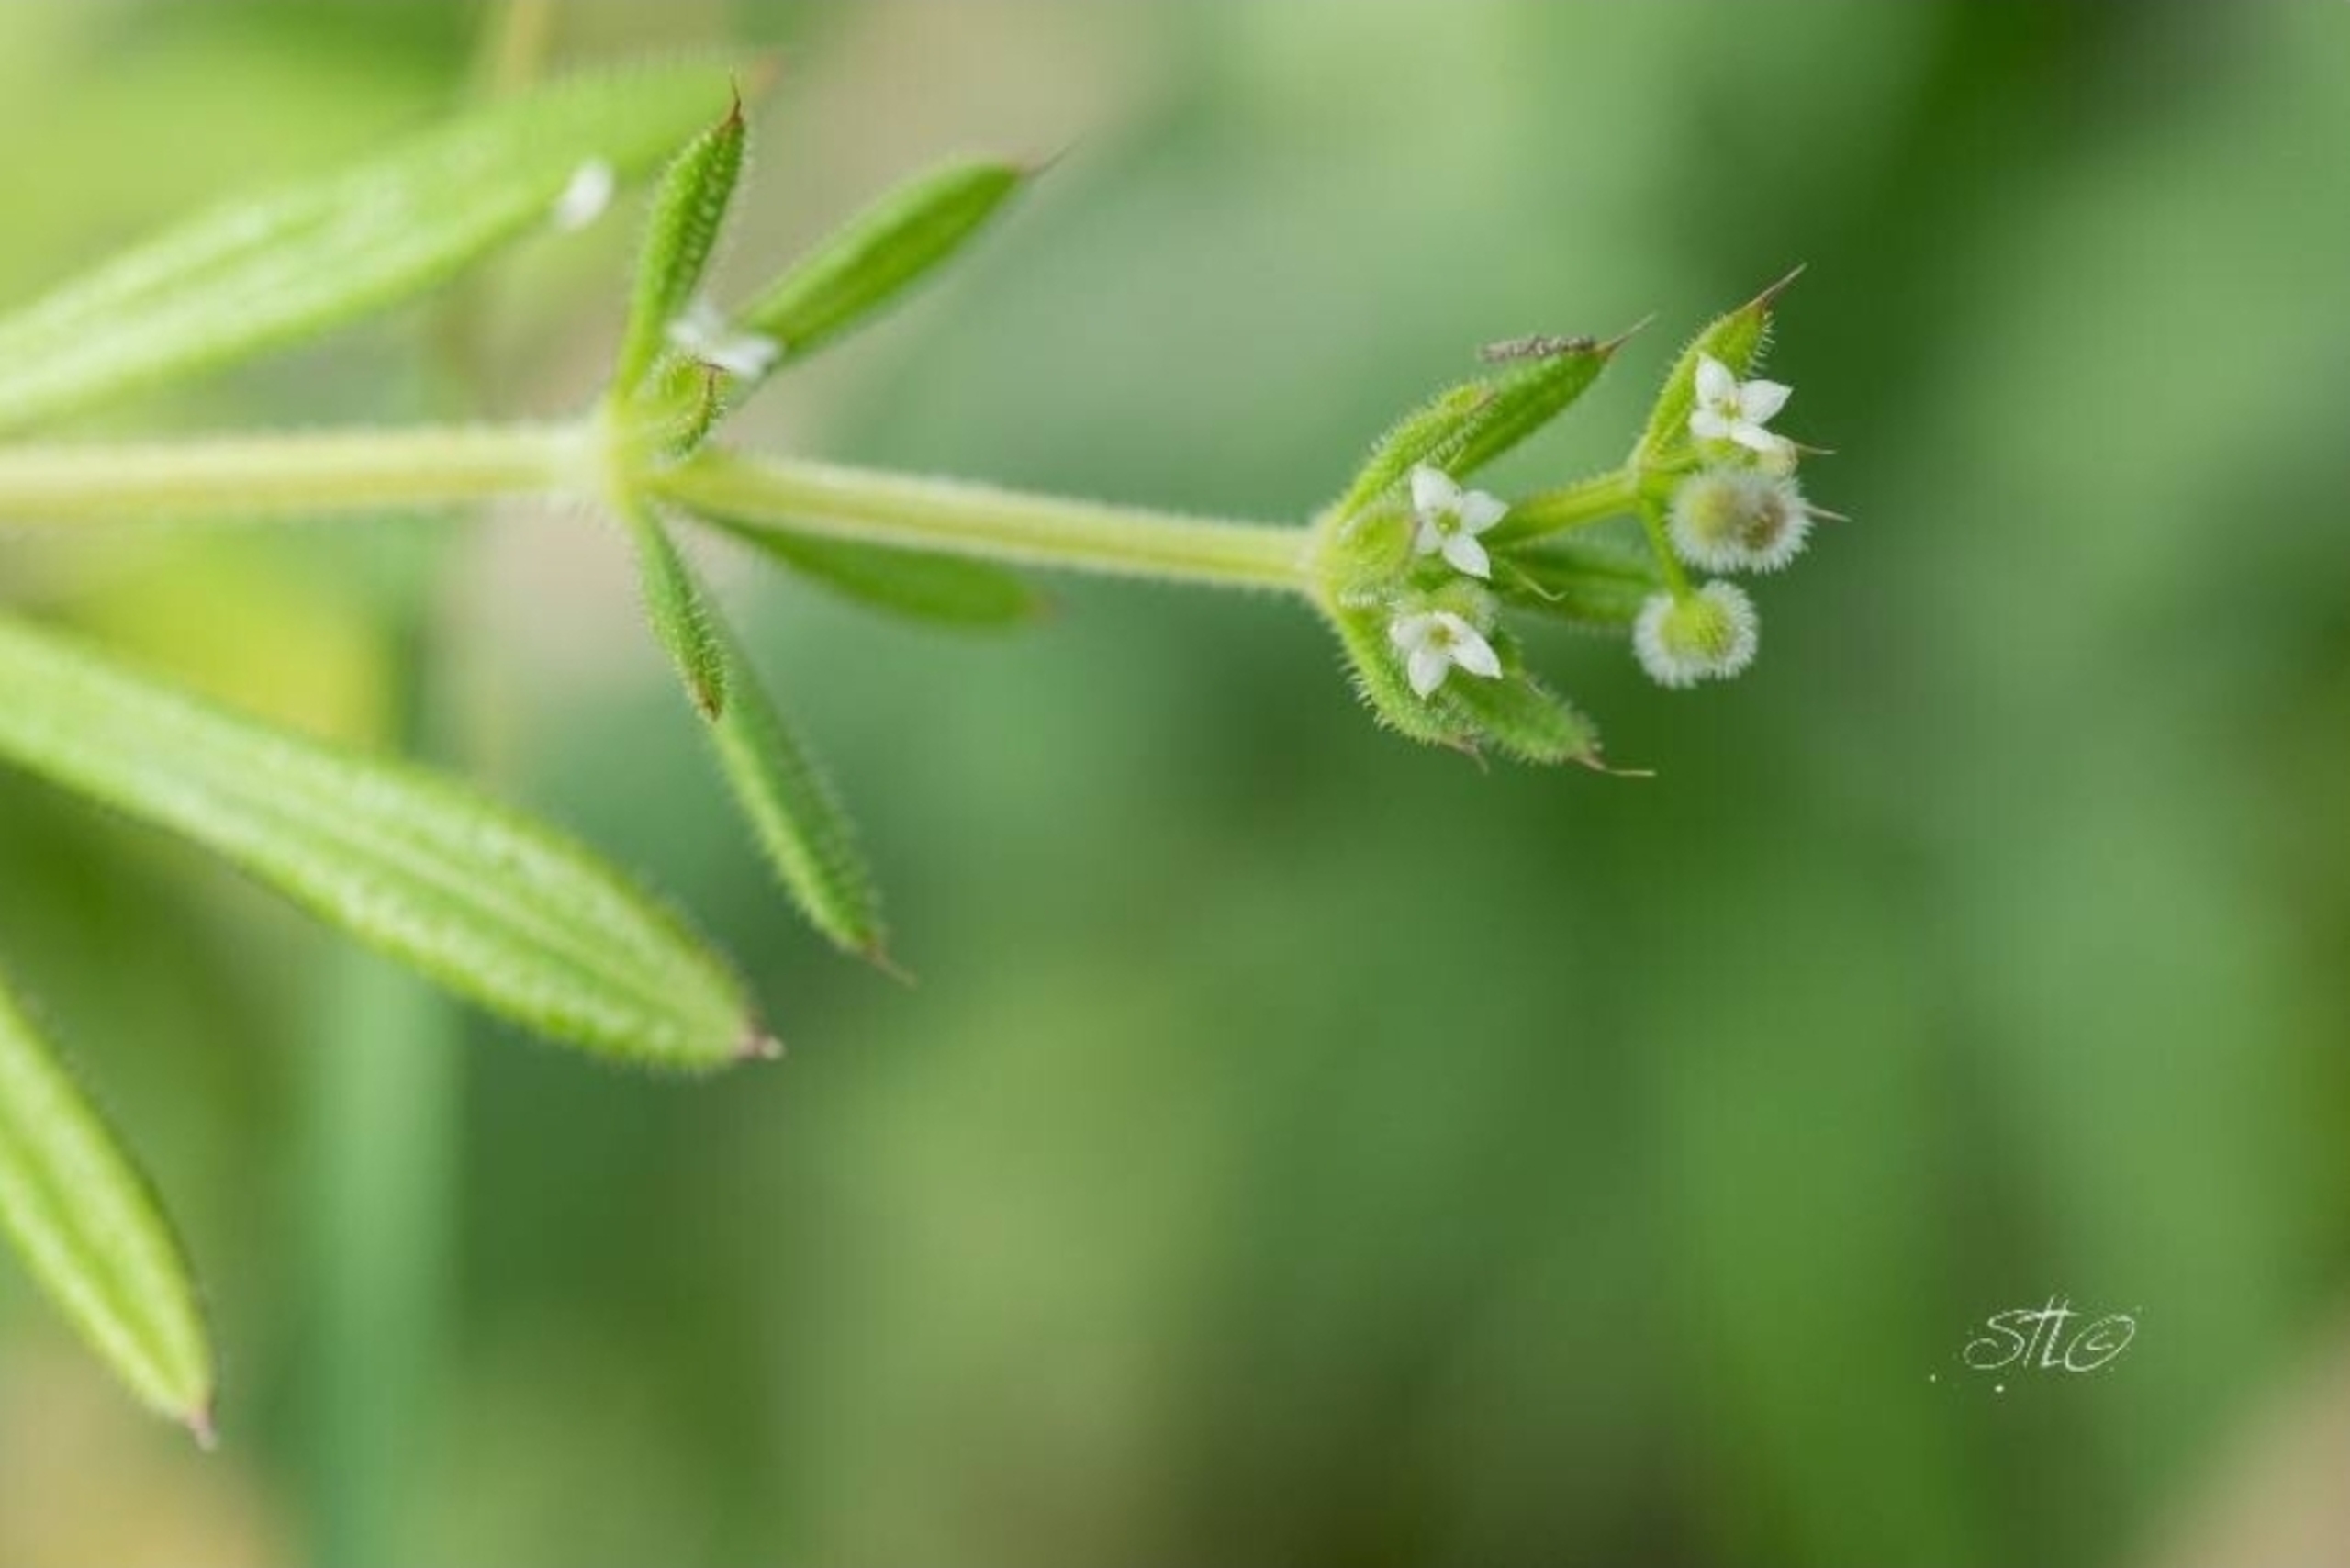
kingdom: Plantae
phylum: Tracheophyta
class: Magnoliopsida
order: Gentianales
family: Rubiaceae
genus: Galium
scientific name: Galium aparine
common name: Burre-snerre
